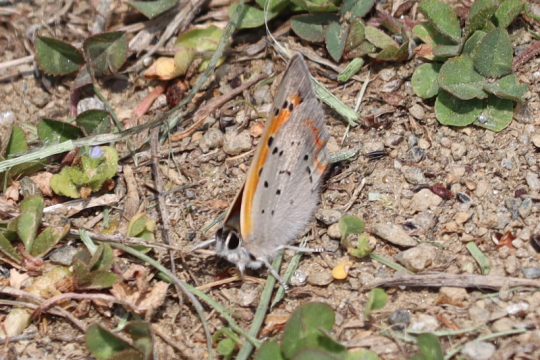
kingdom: Animalia
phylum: Arthropoda
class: Insecta
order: Lepidoptera
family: Lycaenidae
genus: Lycaena
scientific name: Lycaena phlaeas
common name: American Copper
